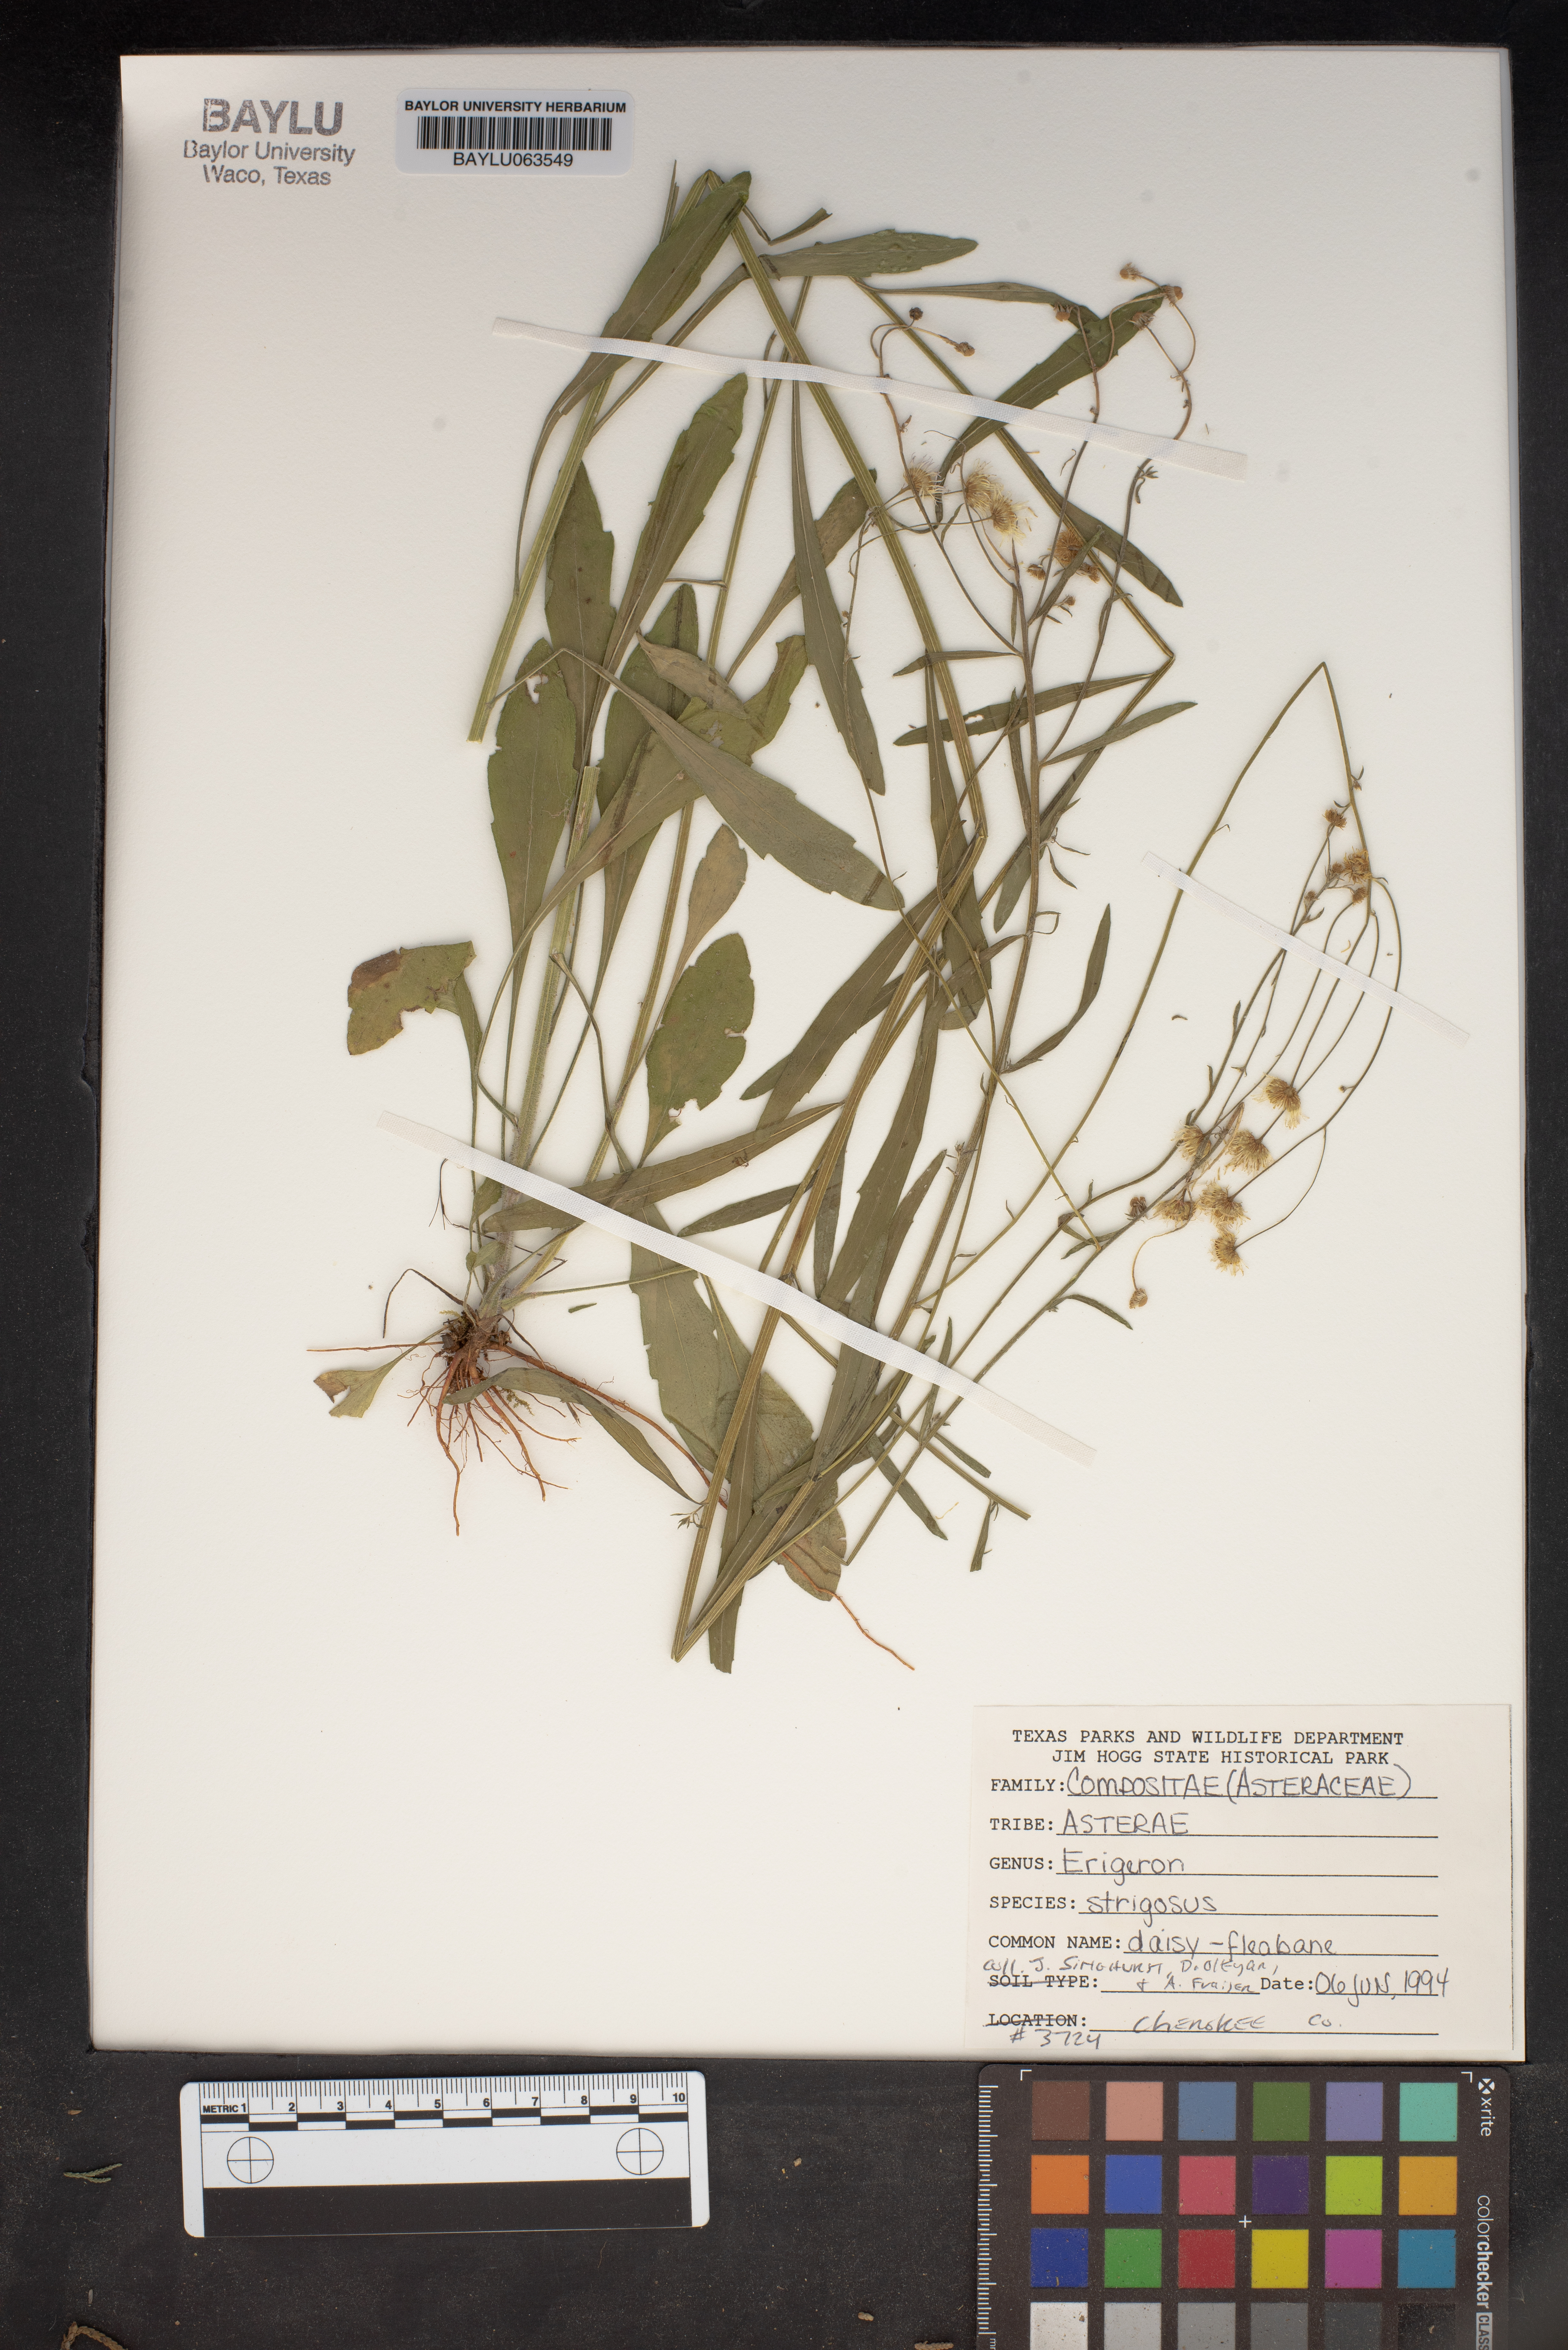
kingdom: Plantae
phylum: Tracheophyta
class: Magnoliopsida
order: Asterales
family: Asteraceae
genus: Erigeron
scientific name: Erigeron strigosus
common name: Common eastern fleabane
